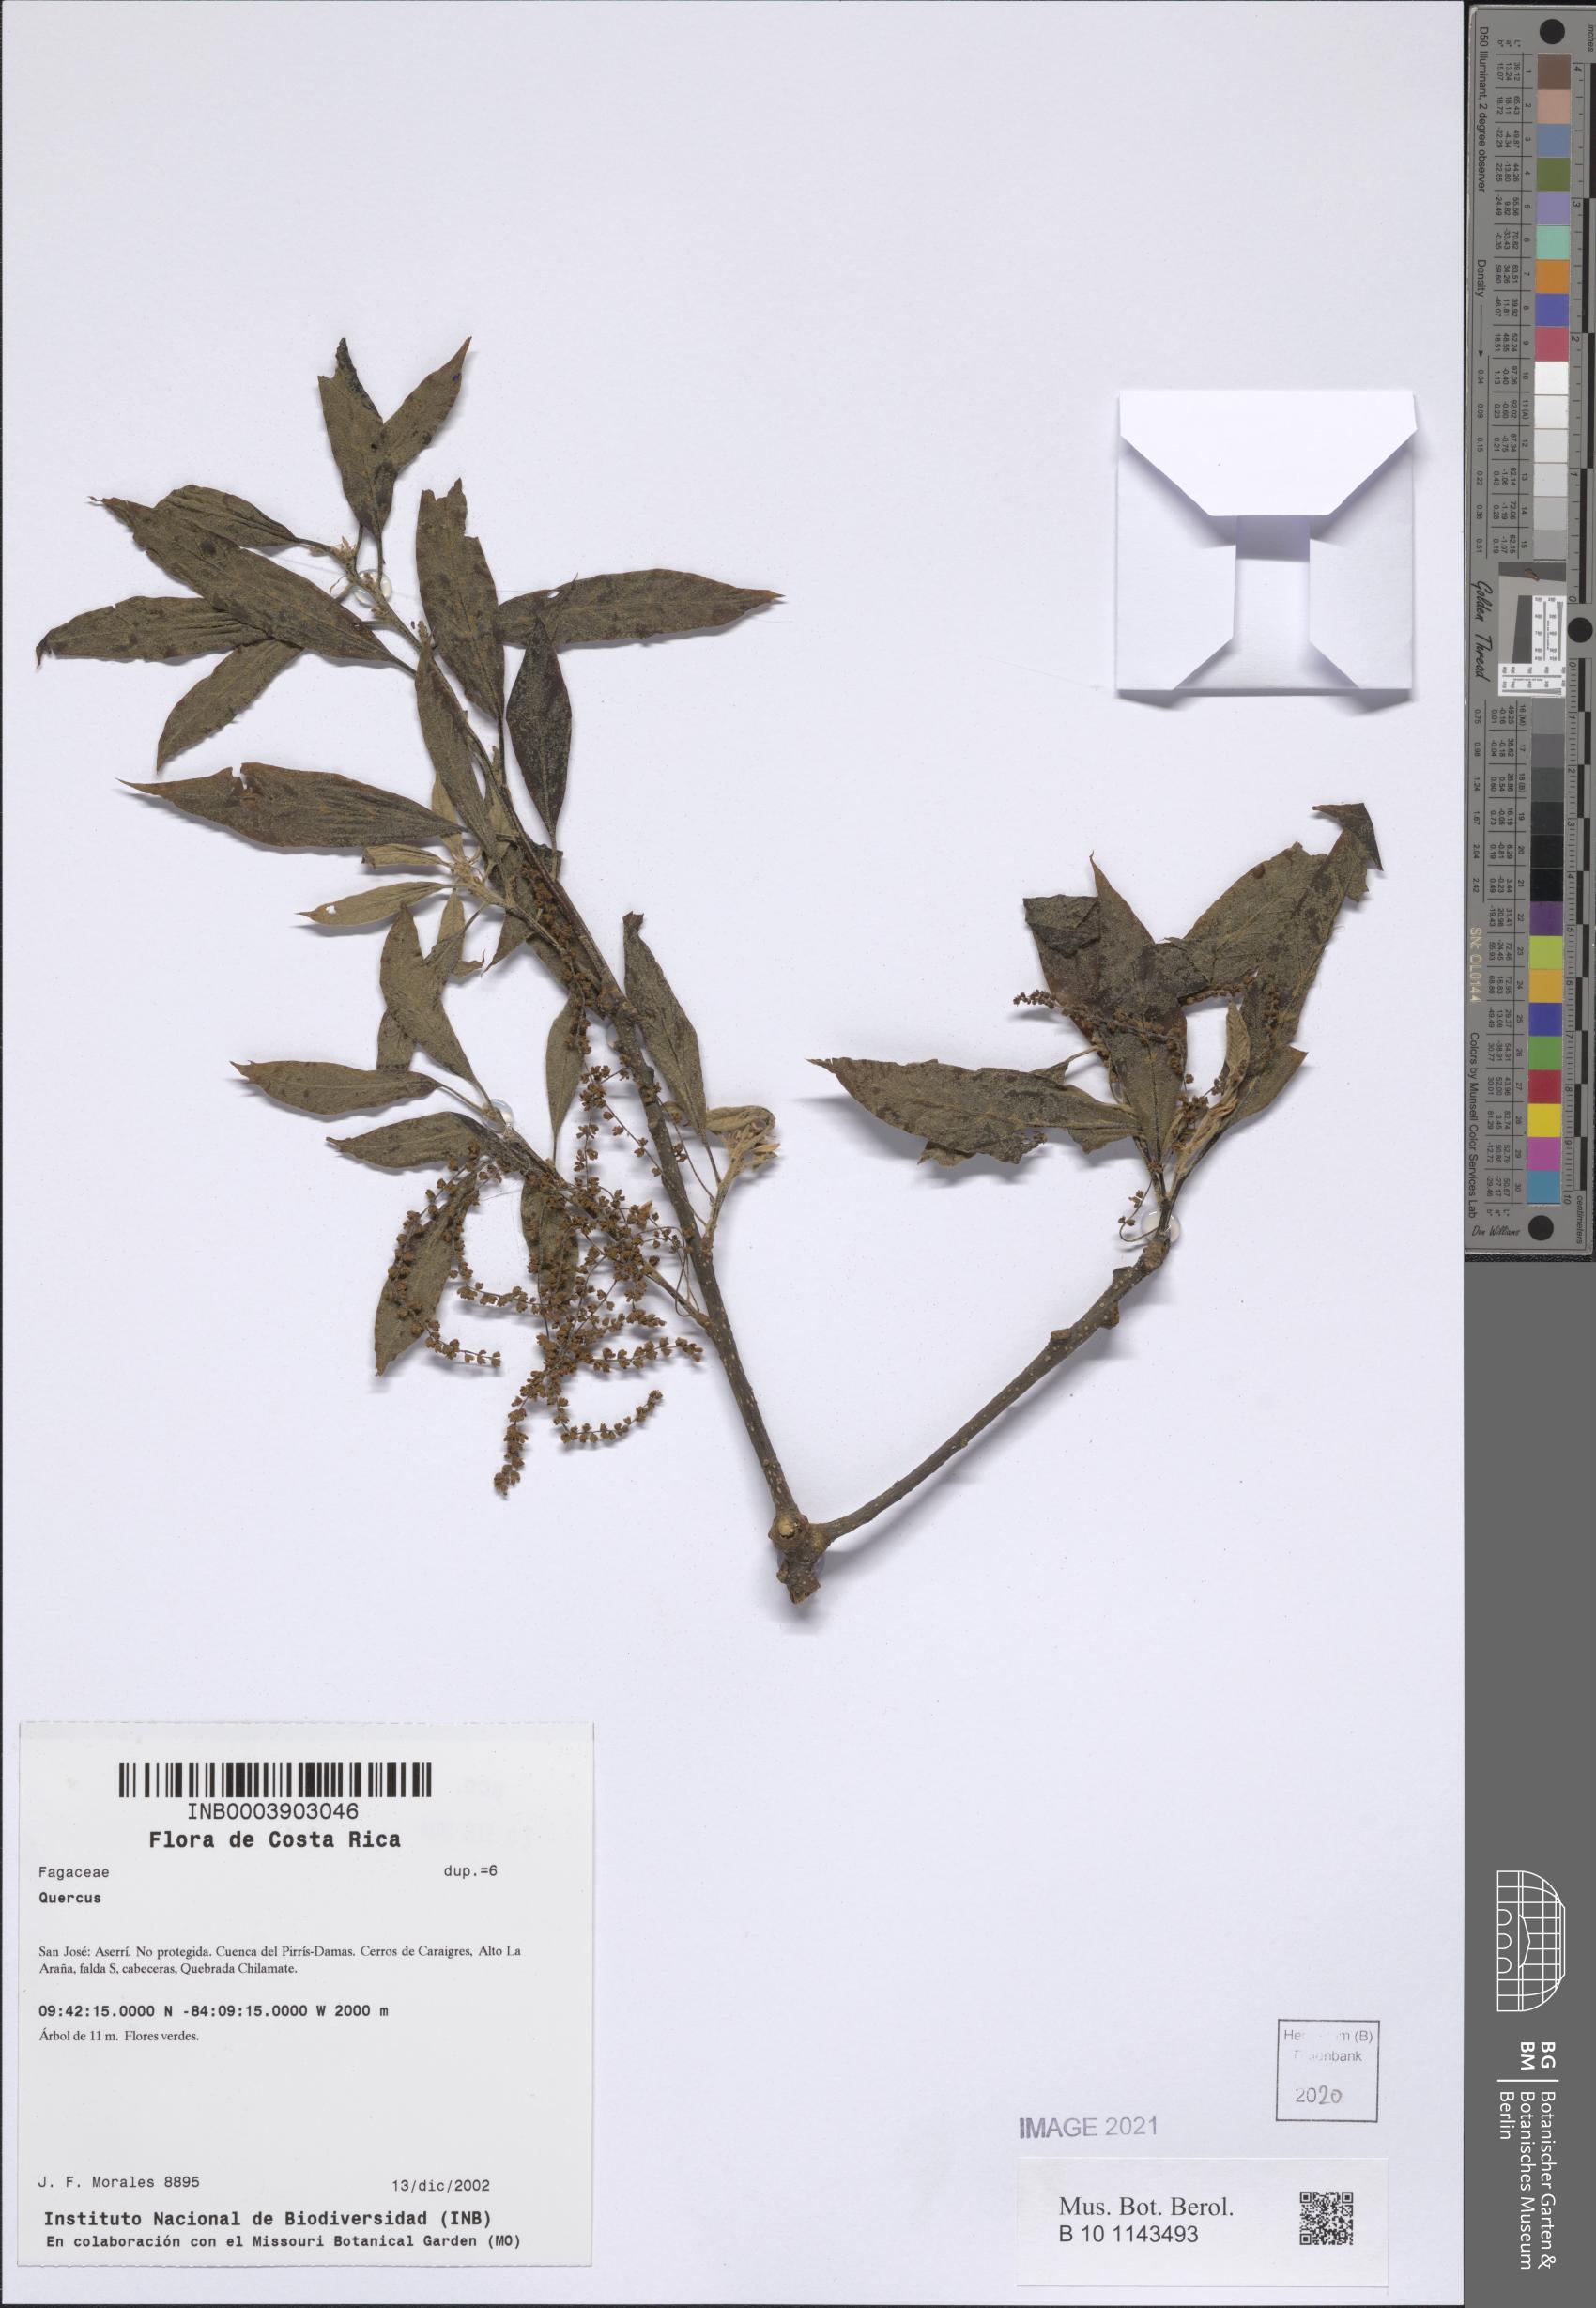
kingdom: Plantae
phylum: Tracheophyta
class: Magnoliopsida
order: Fagales
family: Fagaceae
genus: Quercus
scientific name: Quercus
